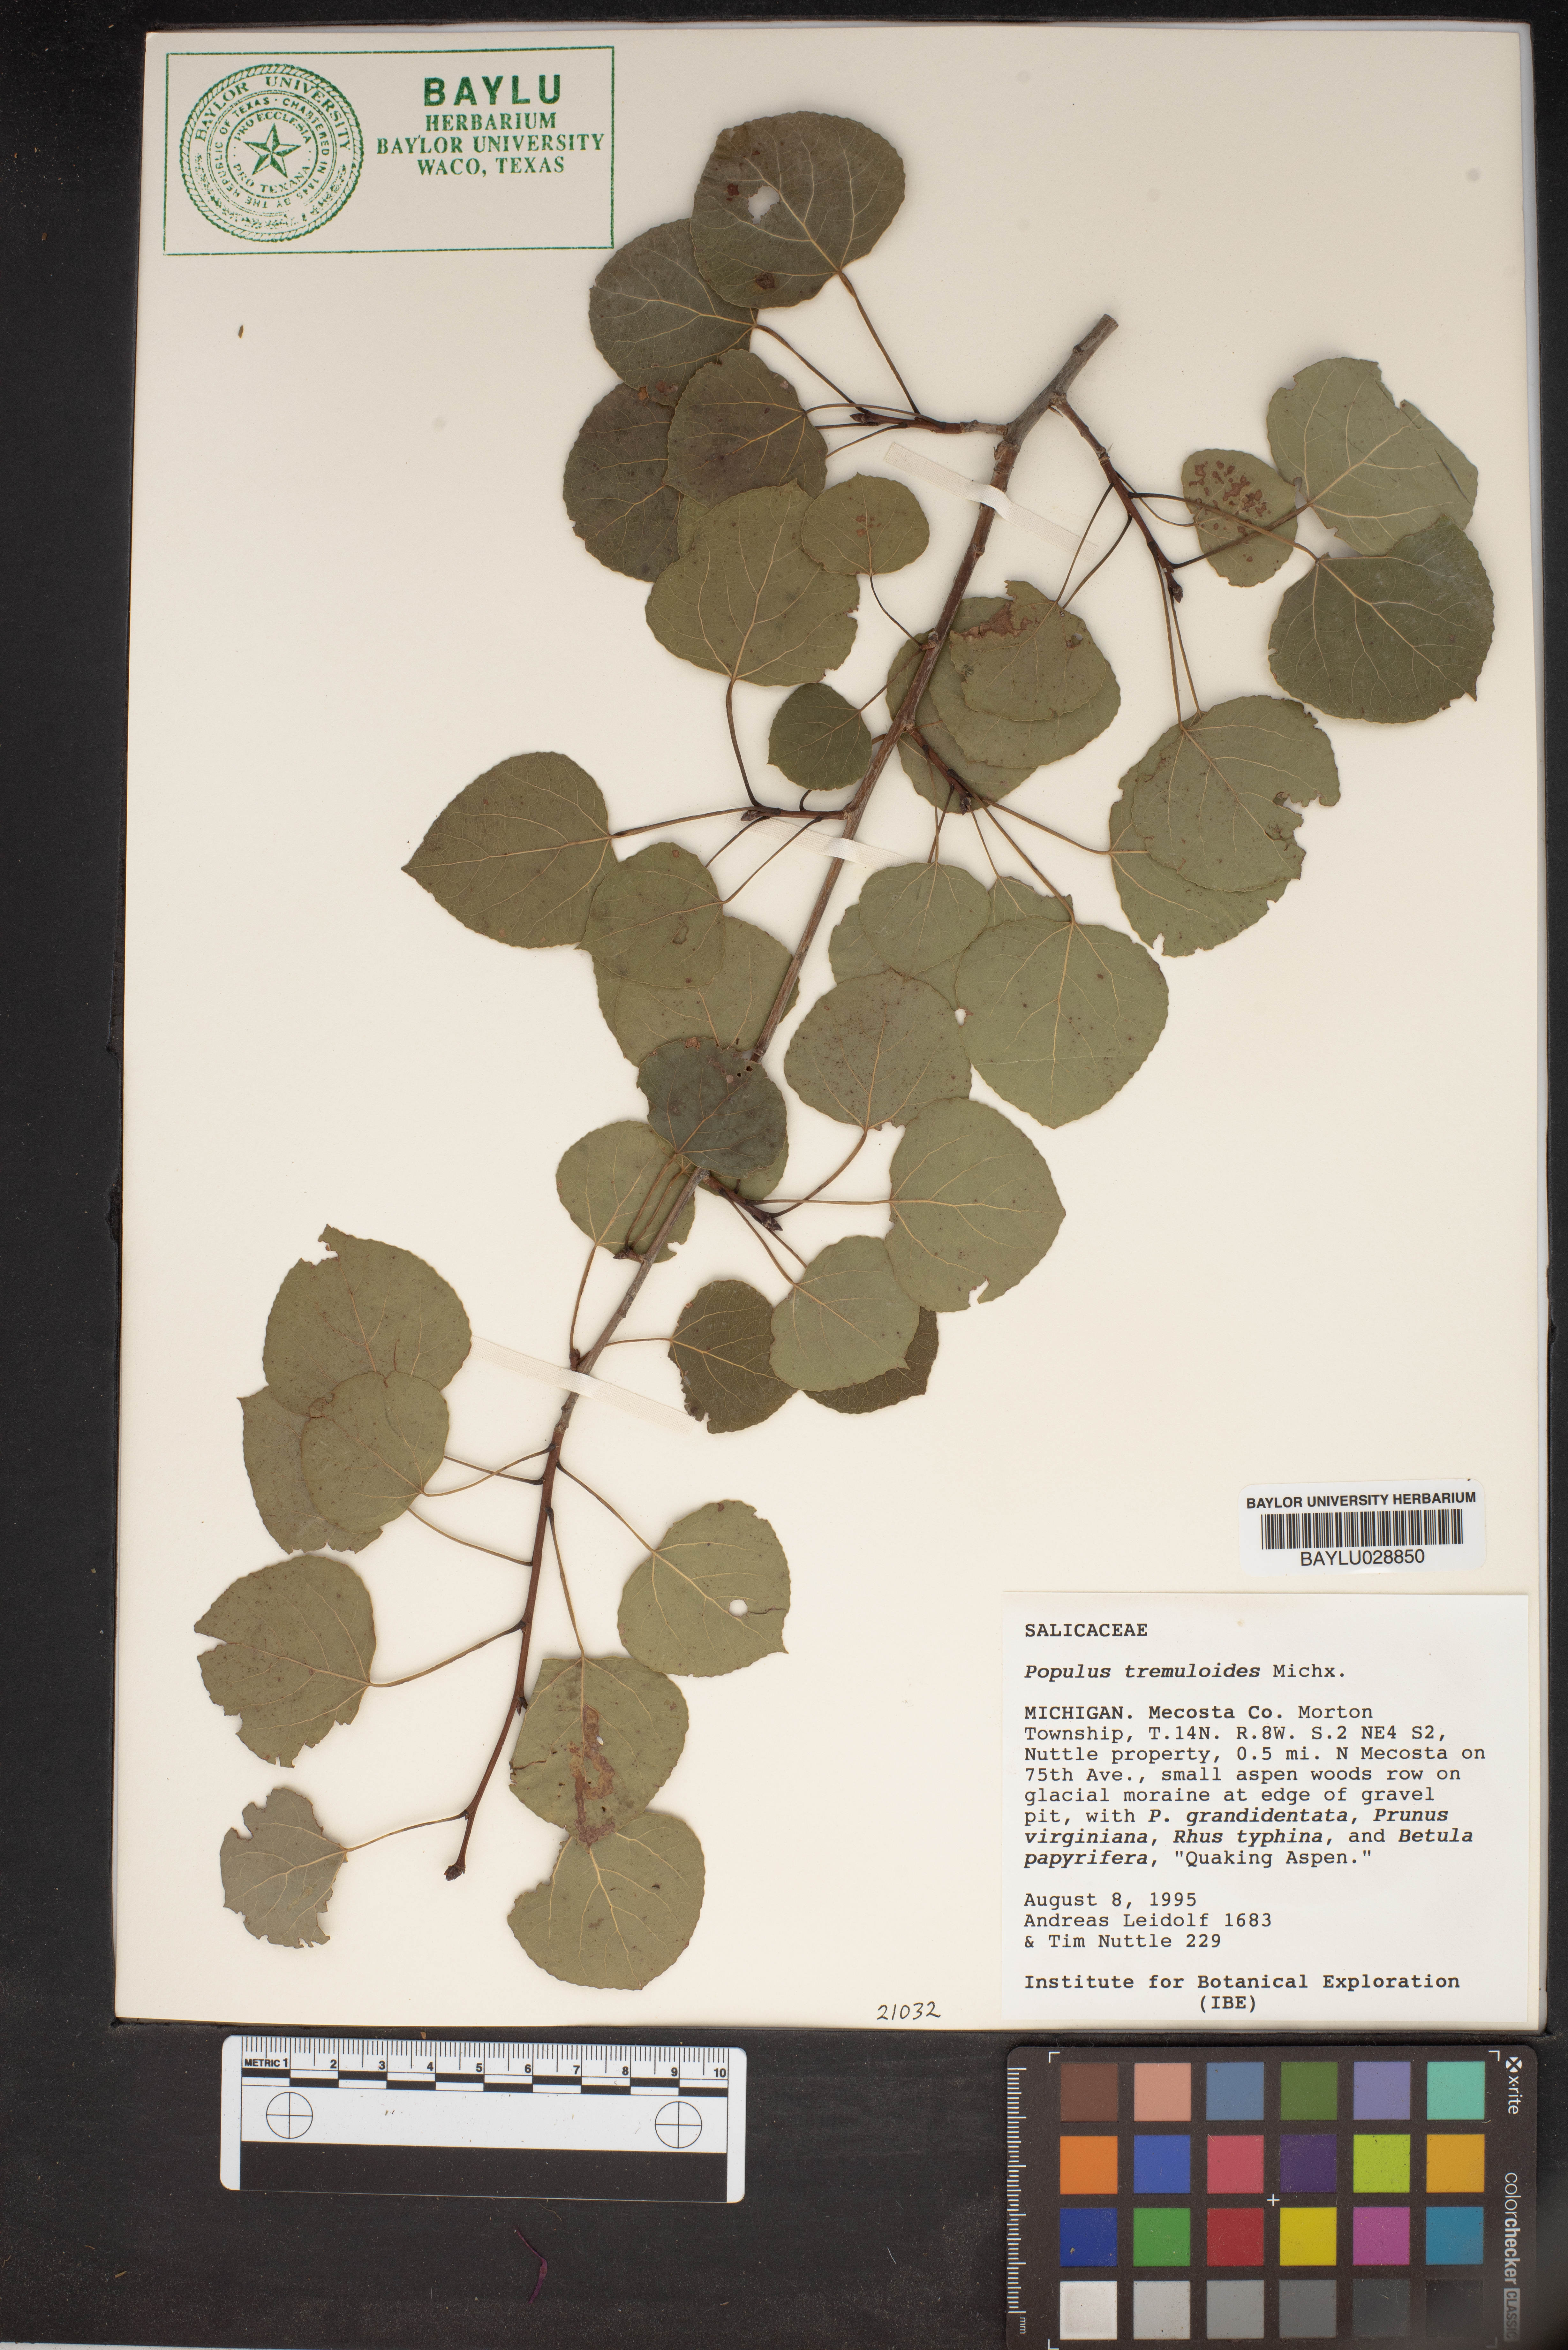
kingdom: Plantae
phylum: Tracheophyta
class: Magnoliopsida
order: Malpighiales
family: Salicaceae
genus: Populus
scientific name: Populus tremuloides
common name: Quaking aspen
